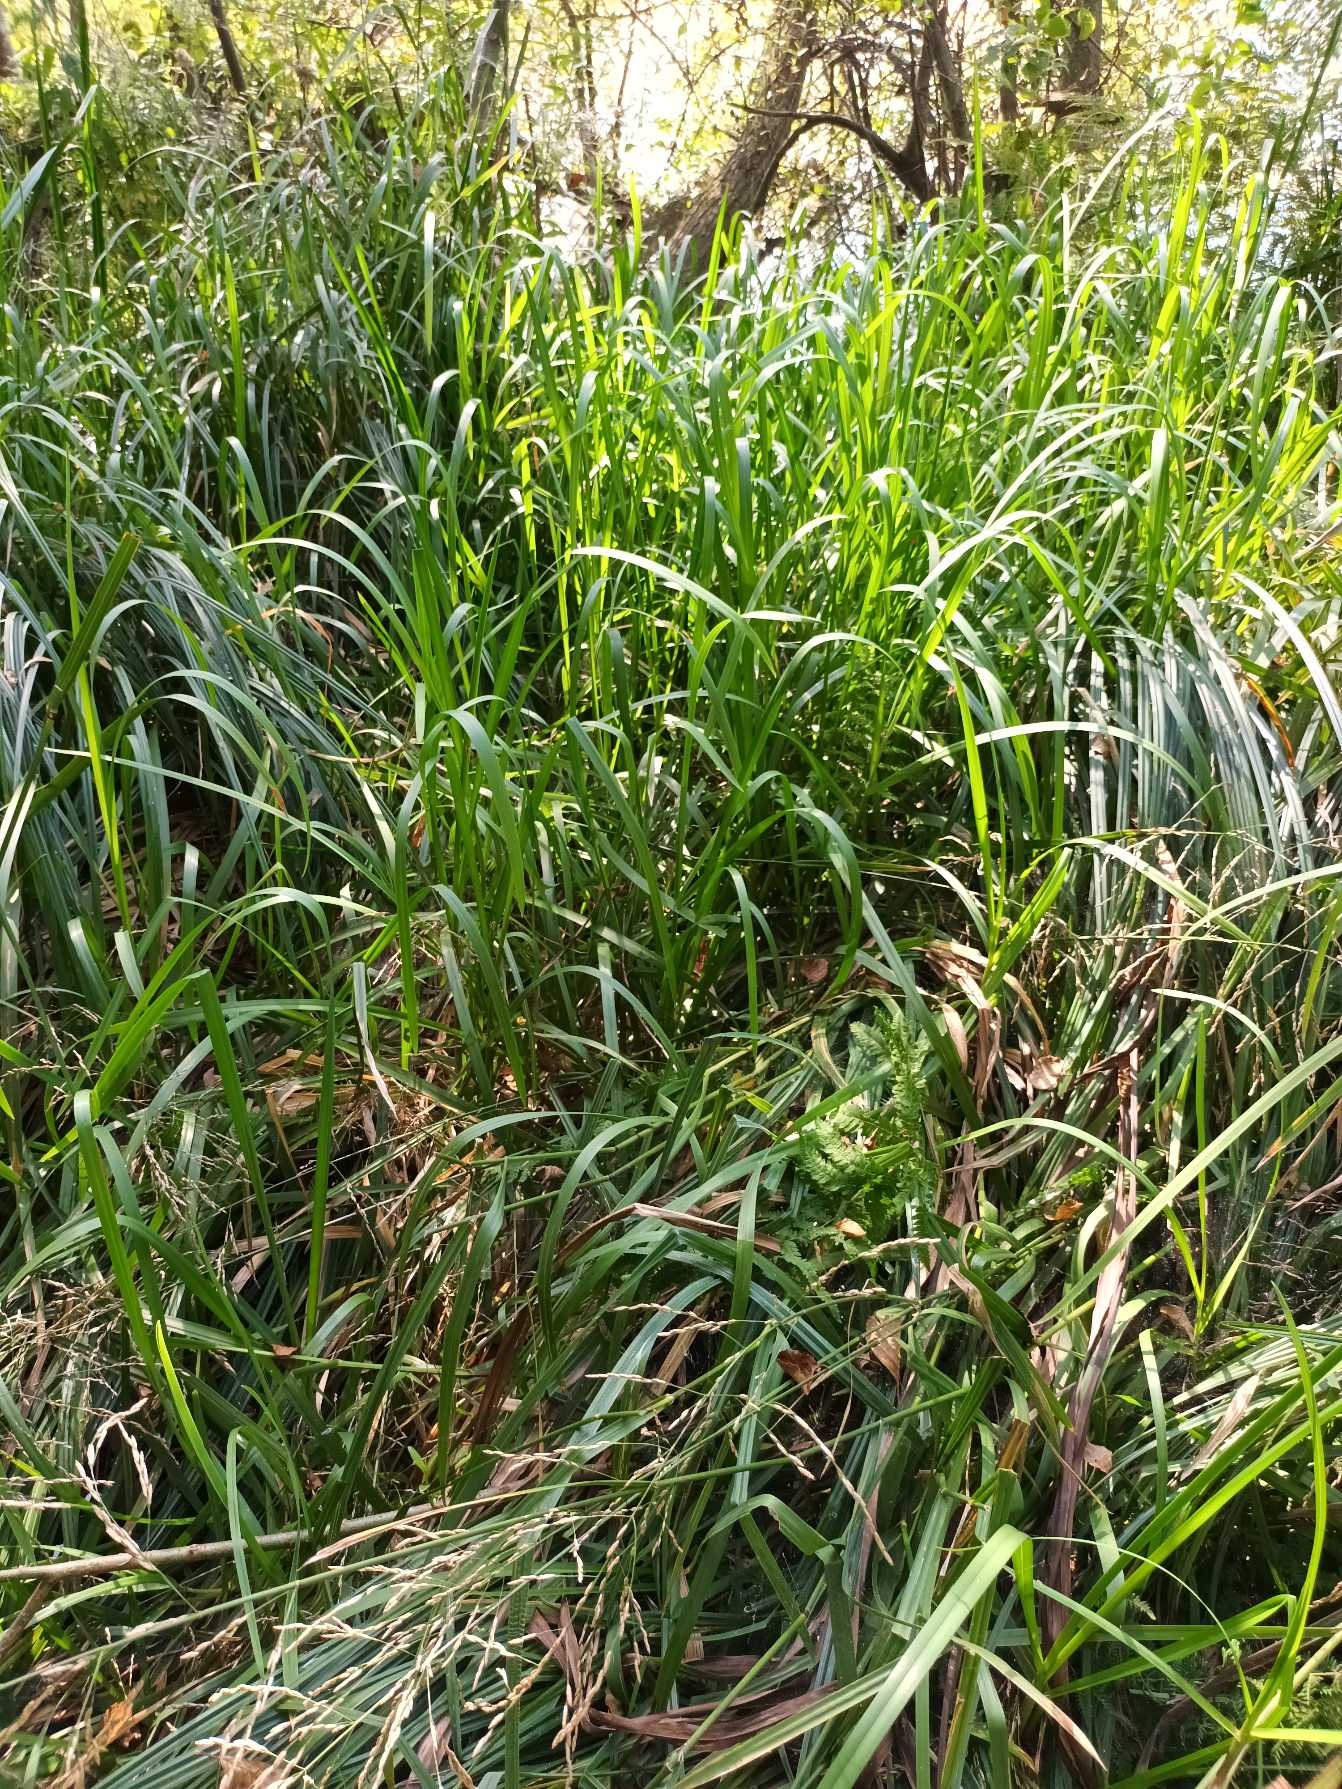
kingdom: Plantae
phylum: Tracheophyta
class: Liliopsida
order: Poales
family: Poaceae
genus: Glyceria
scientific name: Glyceria maxima
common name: Høj sødgræs
